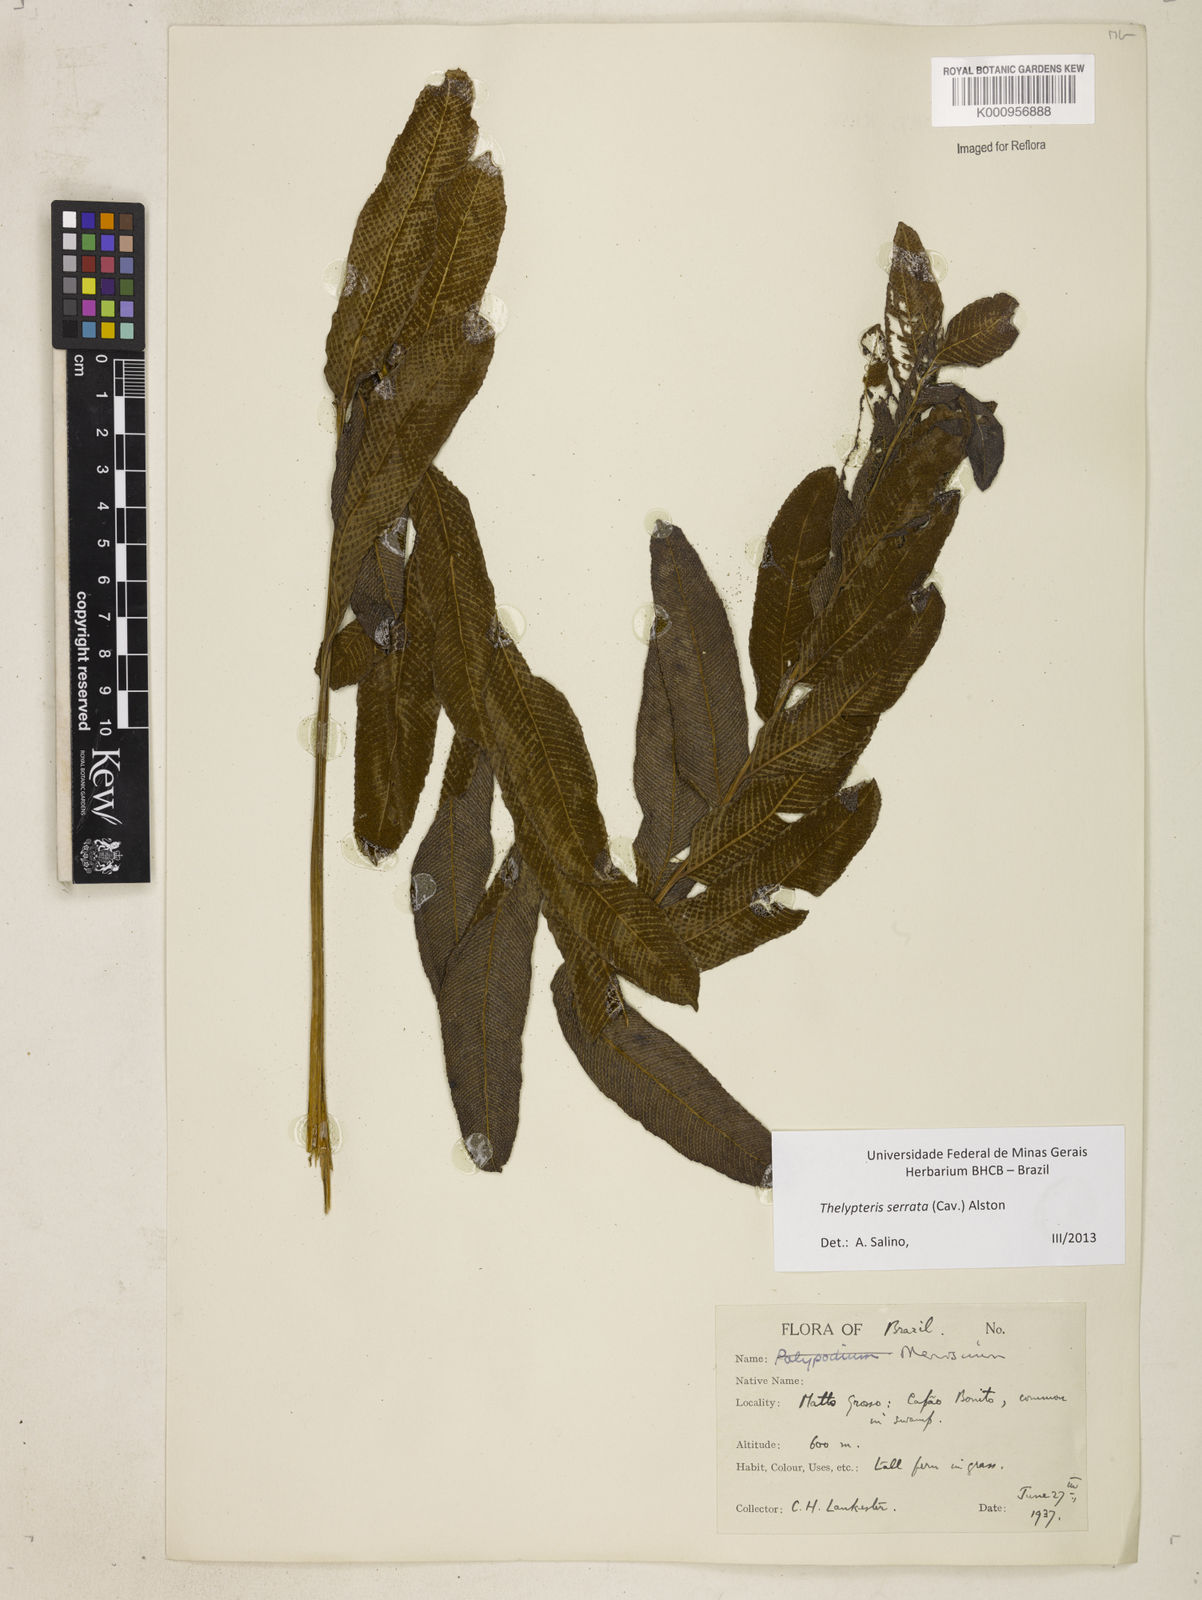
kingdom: Plantae
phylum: Tracheophyta
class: Polypodiopsida
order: Polypodiales
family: Thelypteridaceae
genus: Meniscium
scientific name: Meniscium serratum
